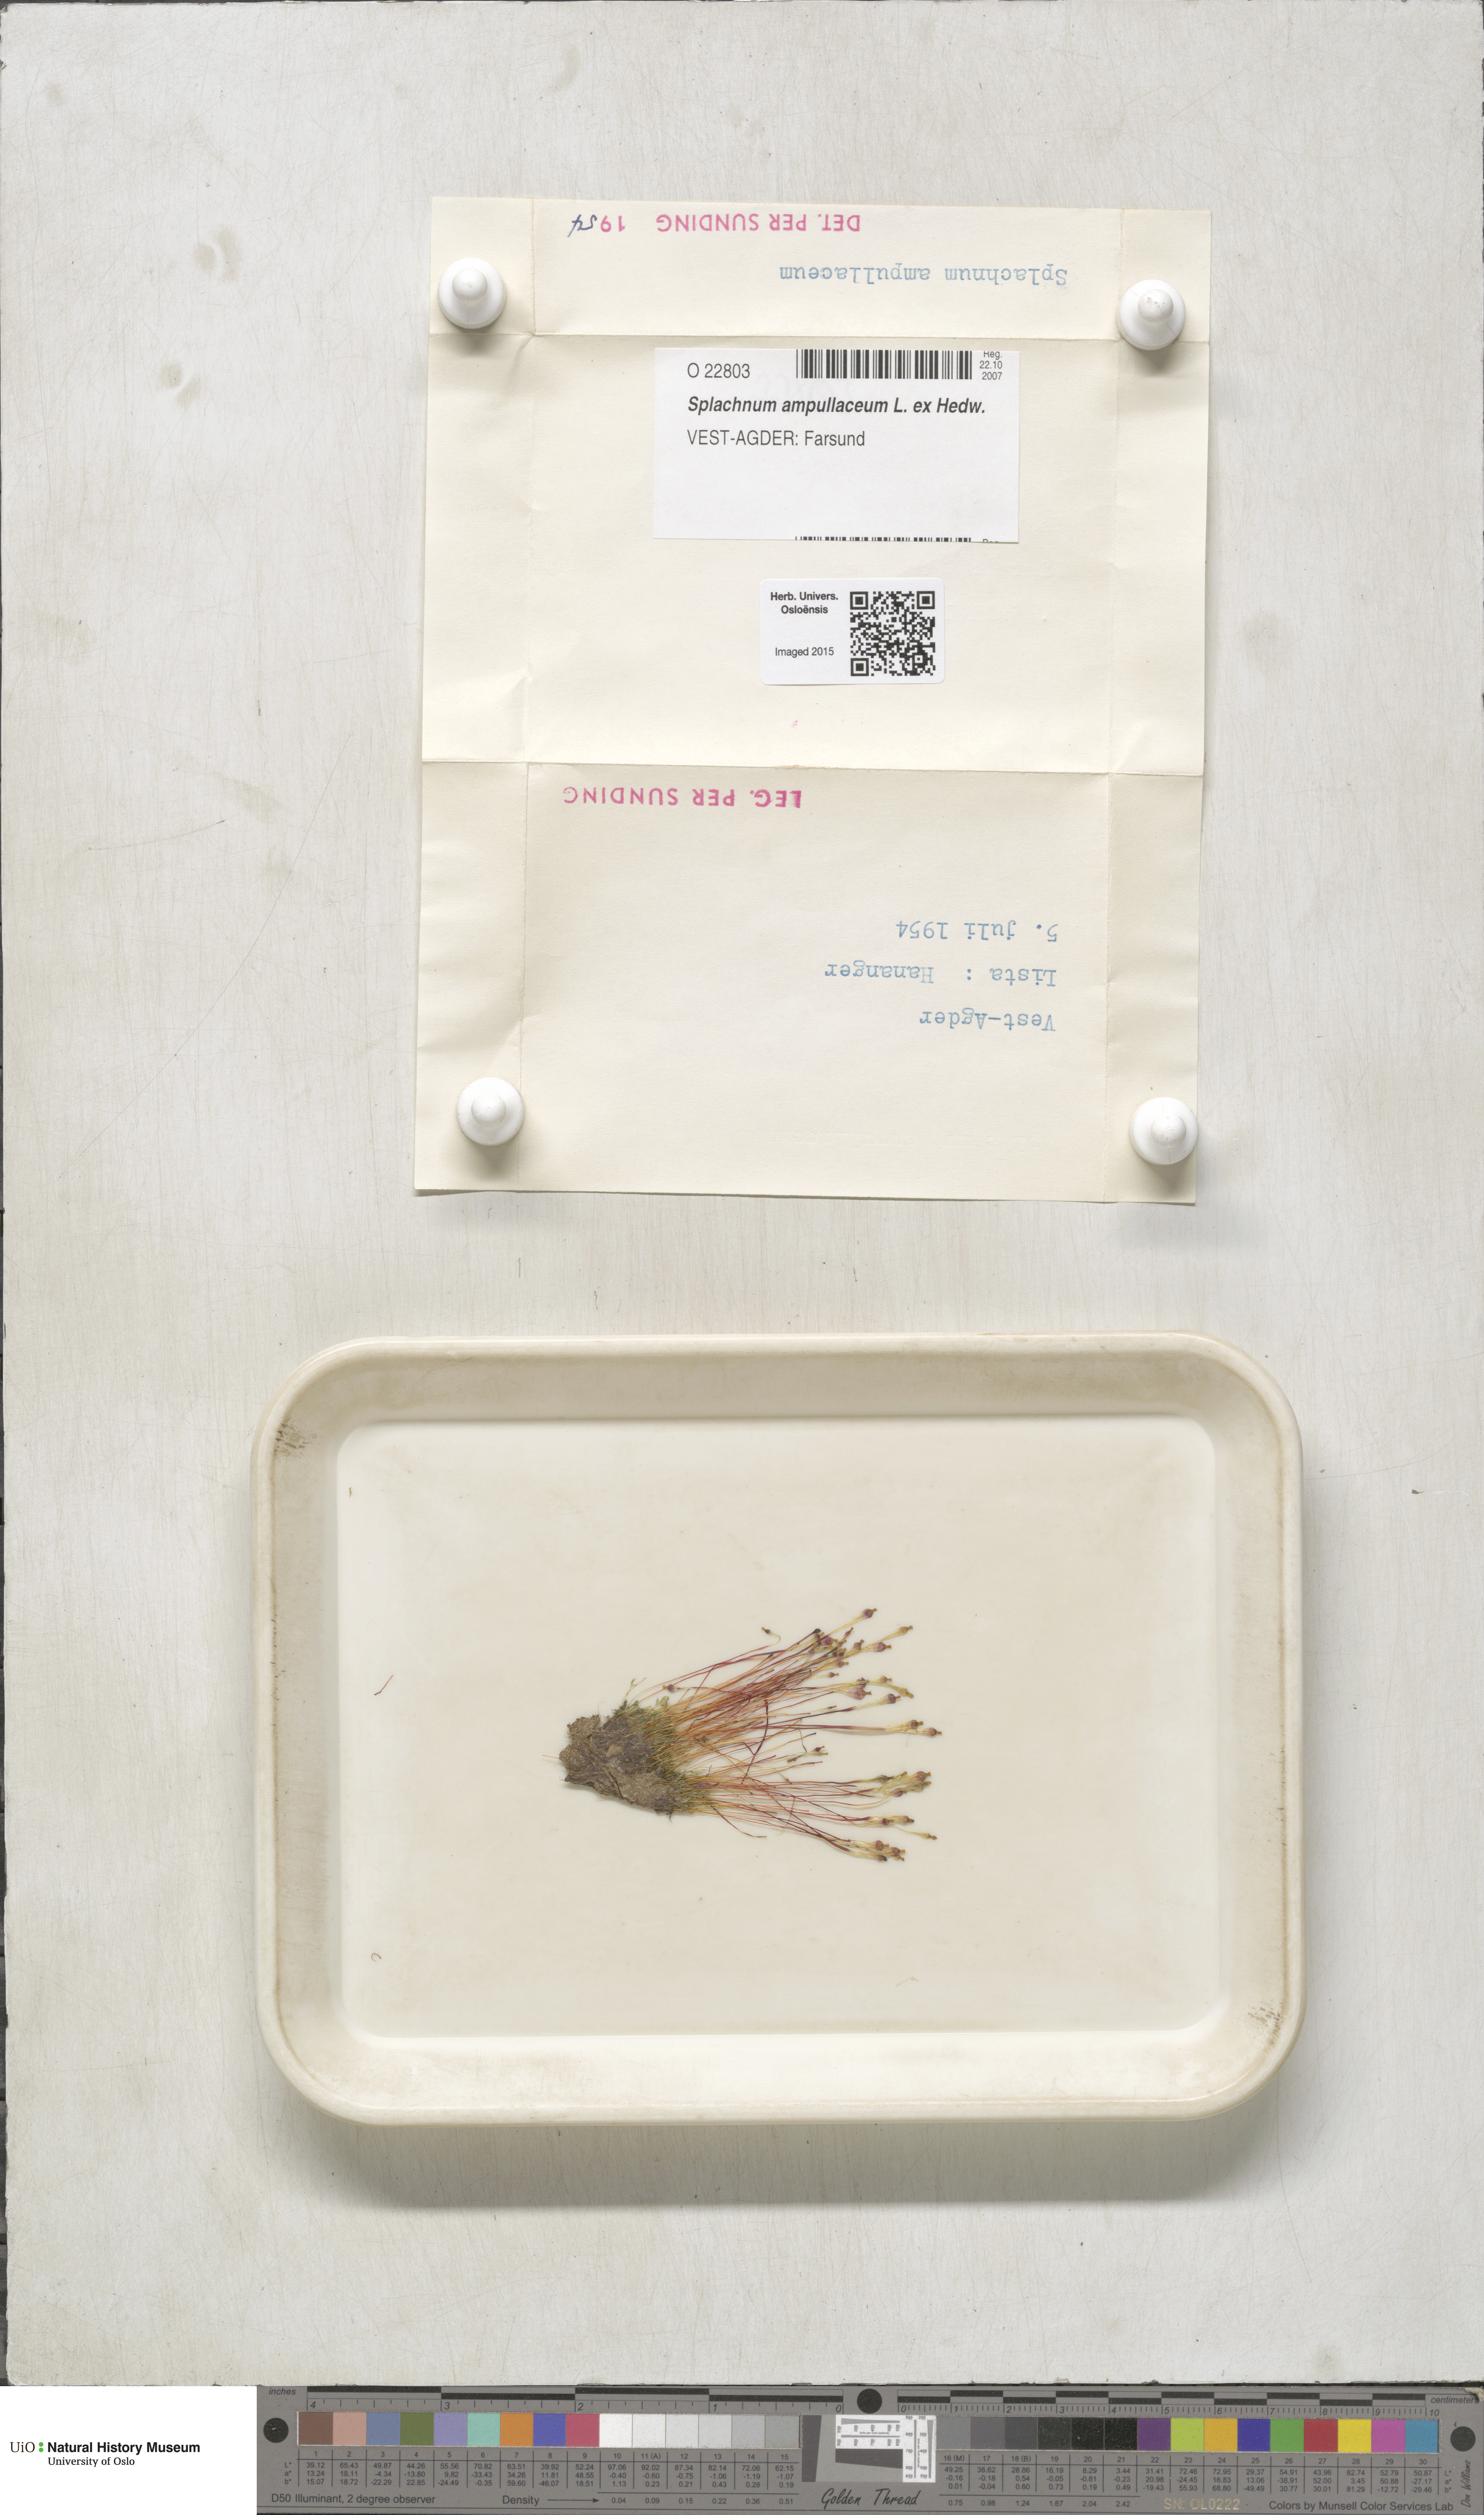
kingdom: Plantae
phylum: Bryophyta
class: Bryopsida
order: Splachnales
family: Splachnaceae
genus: Splachnum
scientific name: Splachnum ampullaceum
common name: Cruet dung moss
